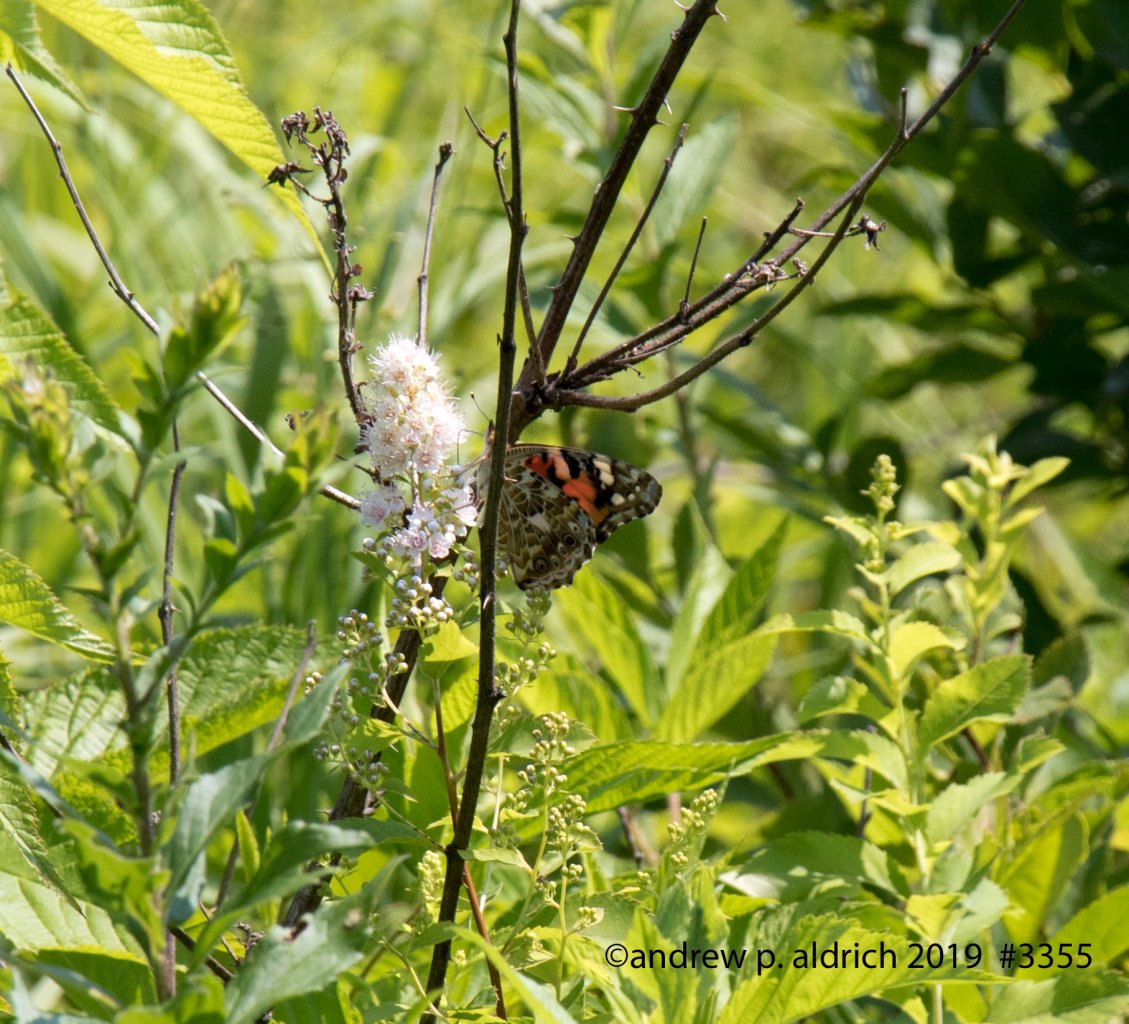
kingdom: Animalia
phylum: Arthropoda
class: Insecta
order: Lepidoptera
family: Nymphalidae
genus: Vanessa
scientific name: Vanessa cardui
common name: Painted Lady
